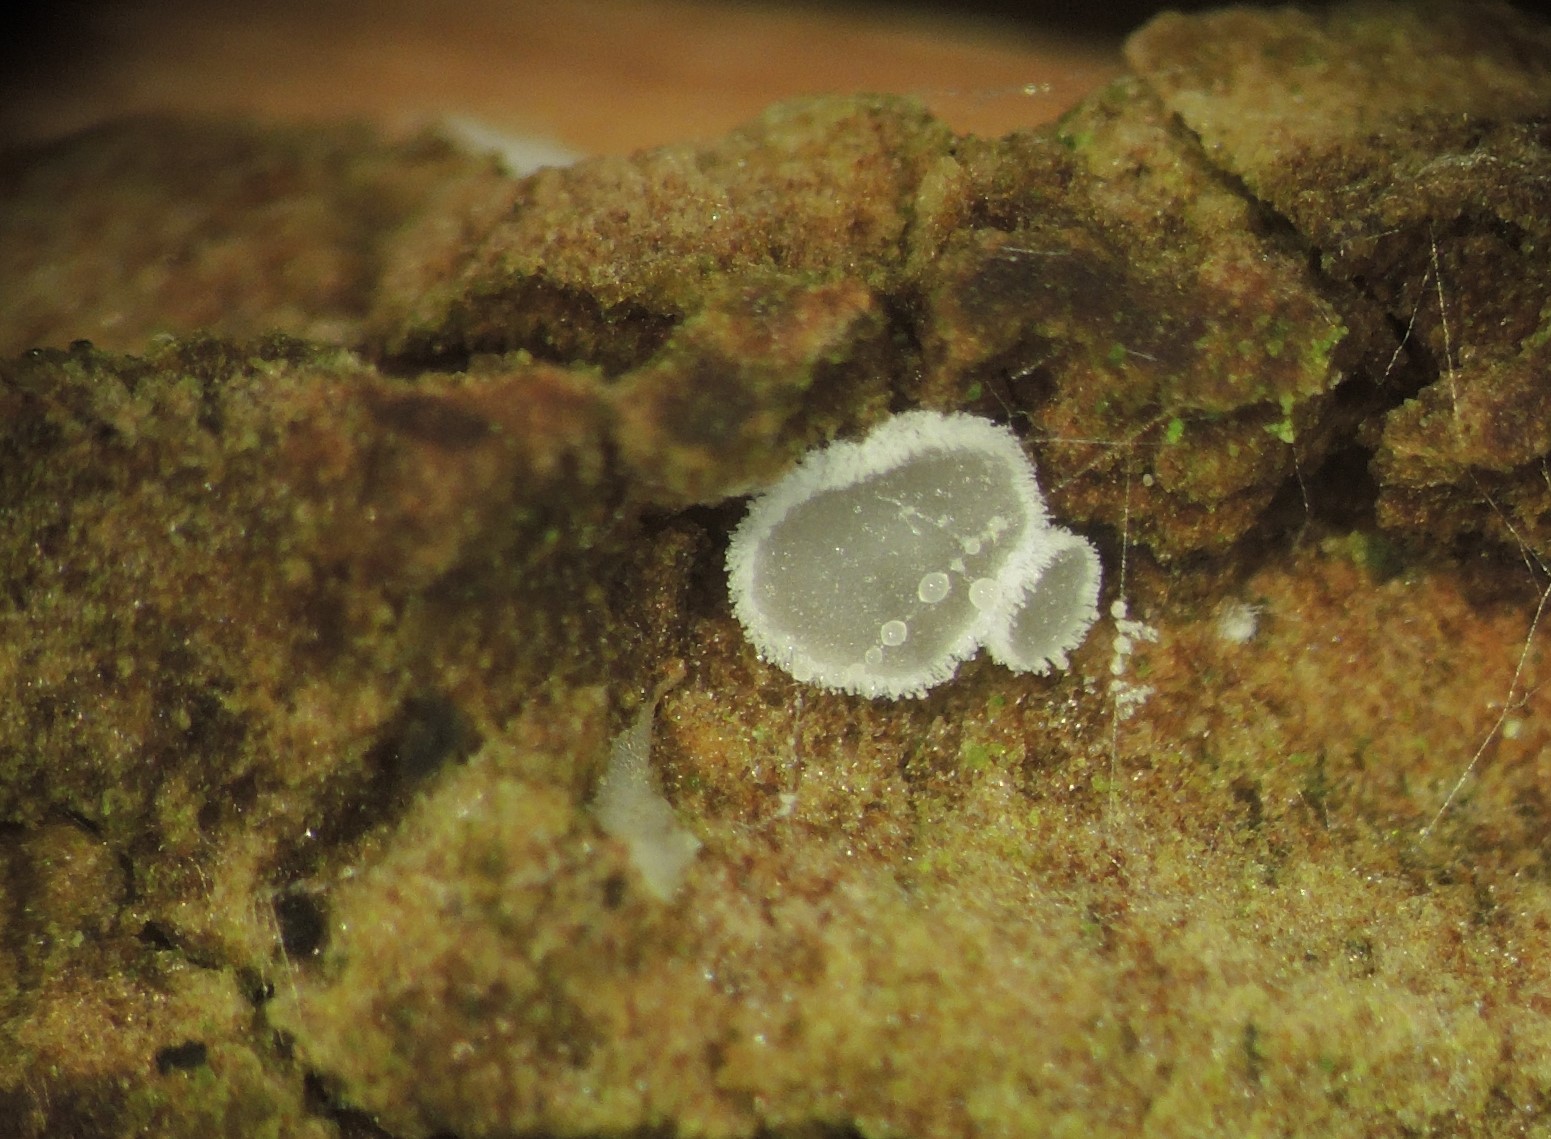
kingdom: Fungi
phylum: Basidiomycota
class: Agaricomycetes
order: Agaricales
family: Niaceae
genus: Lachnella
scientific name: Lachnella alboviolascens
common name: grå frynserede
